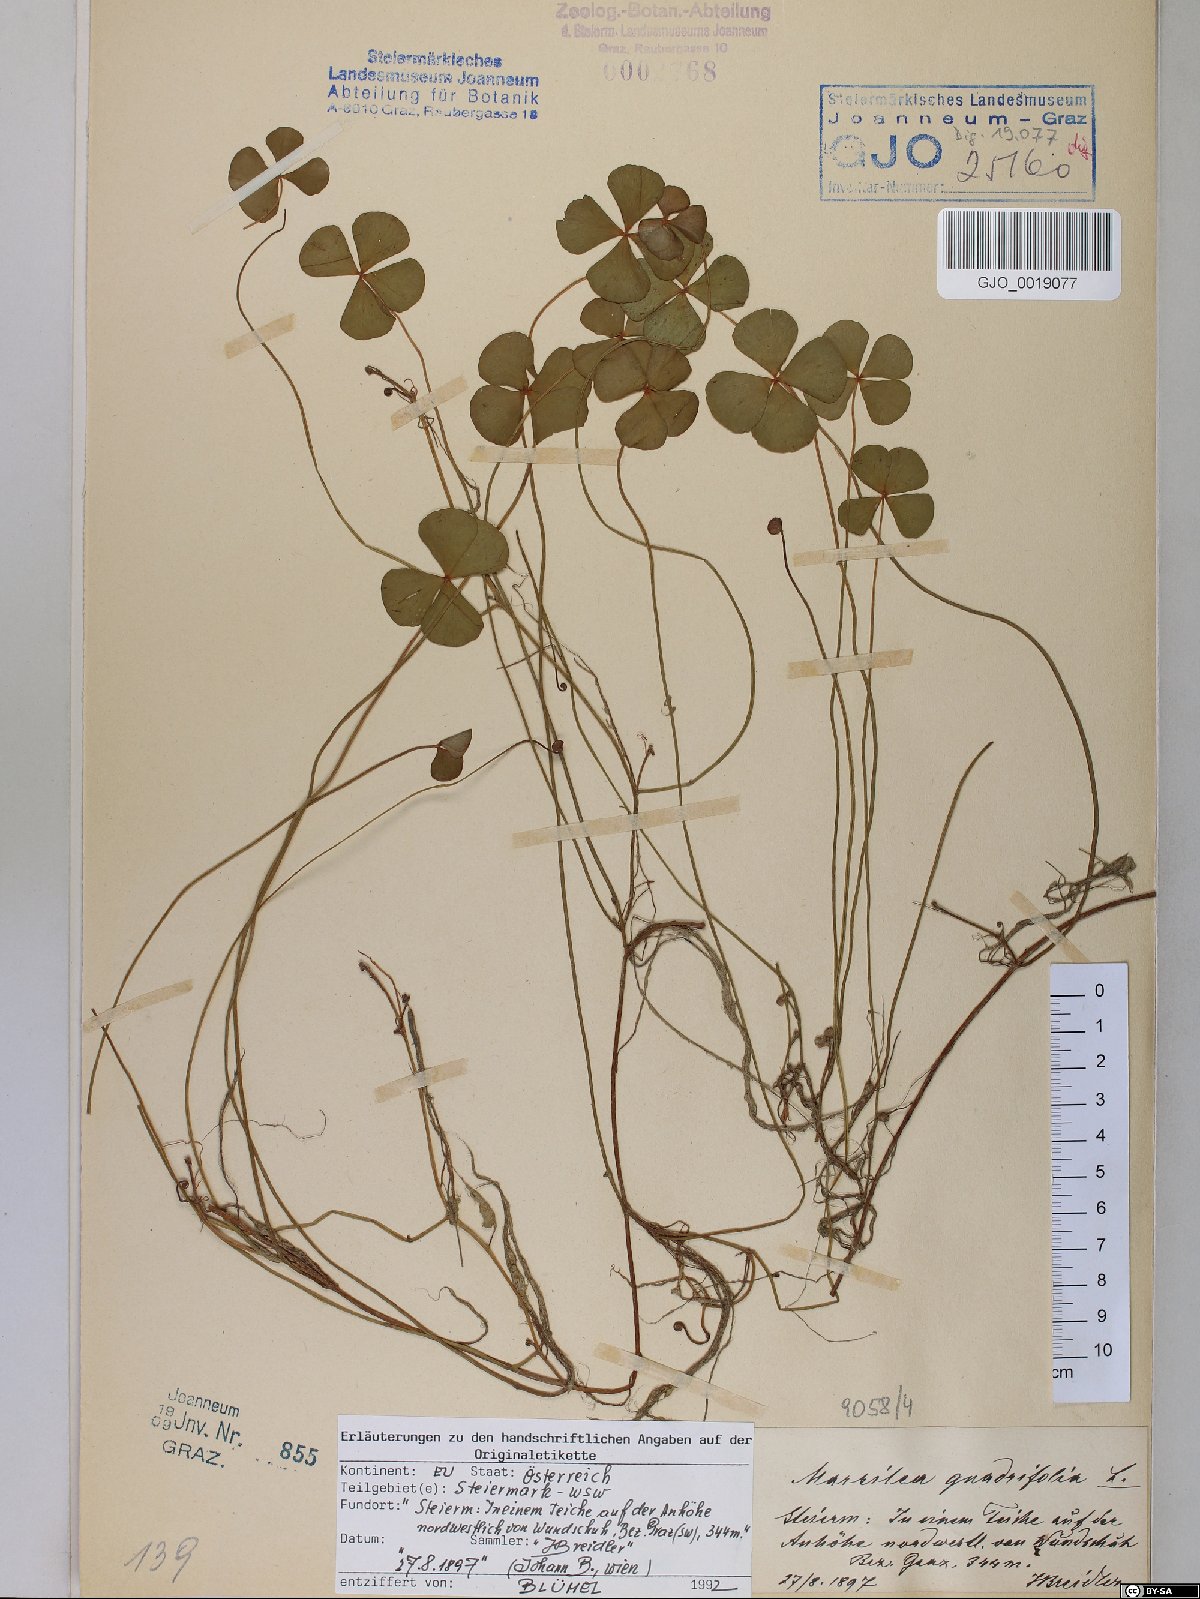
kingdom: Plantae
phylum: Tracheophyta
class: Polypodiopsida
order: Salviniales
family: Marsileaceae
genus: Marsilea
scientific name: Marsilea quadrifolia
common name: Water shamrock
